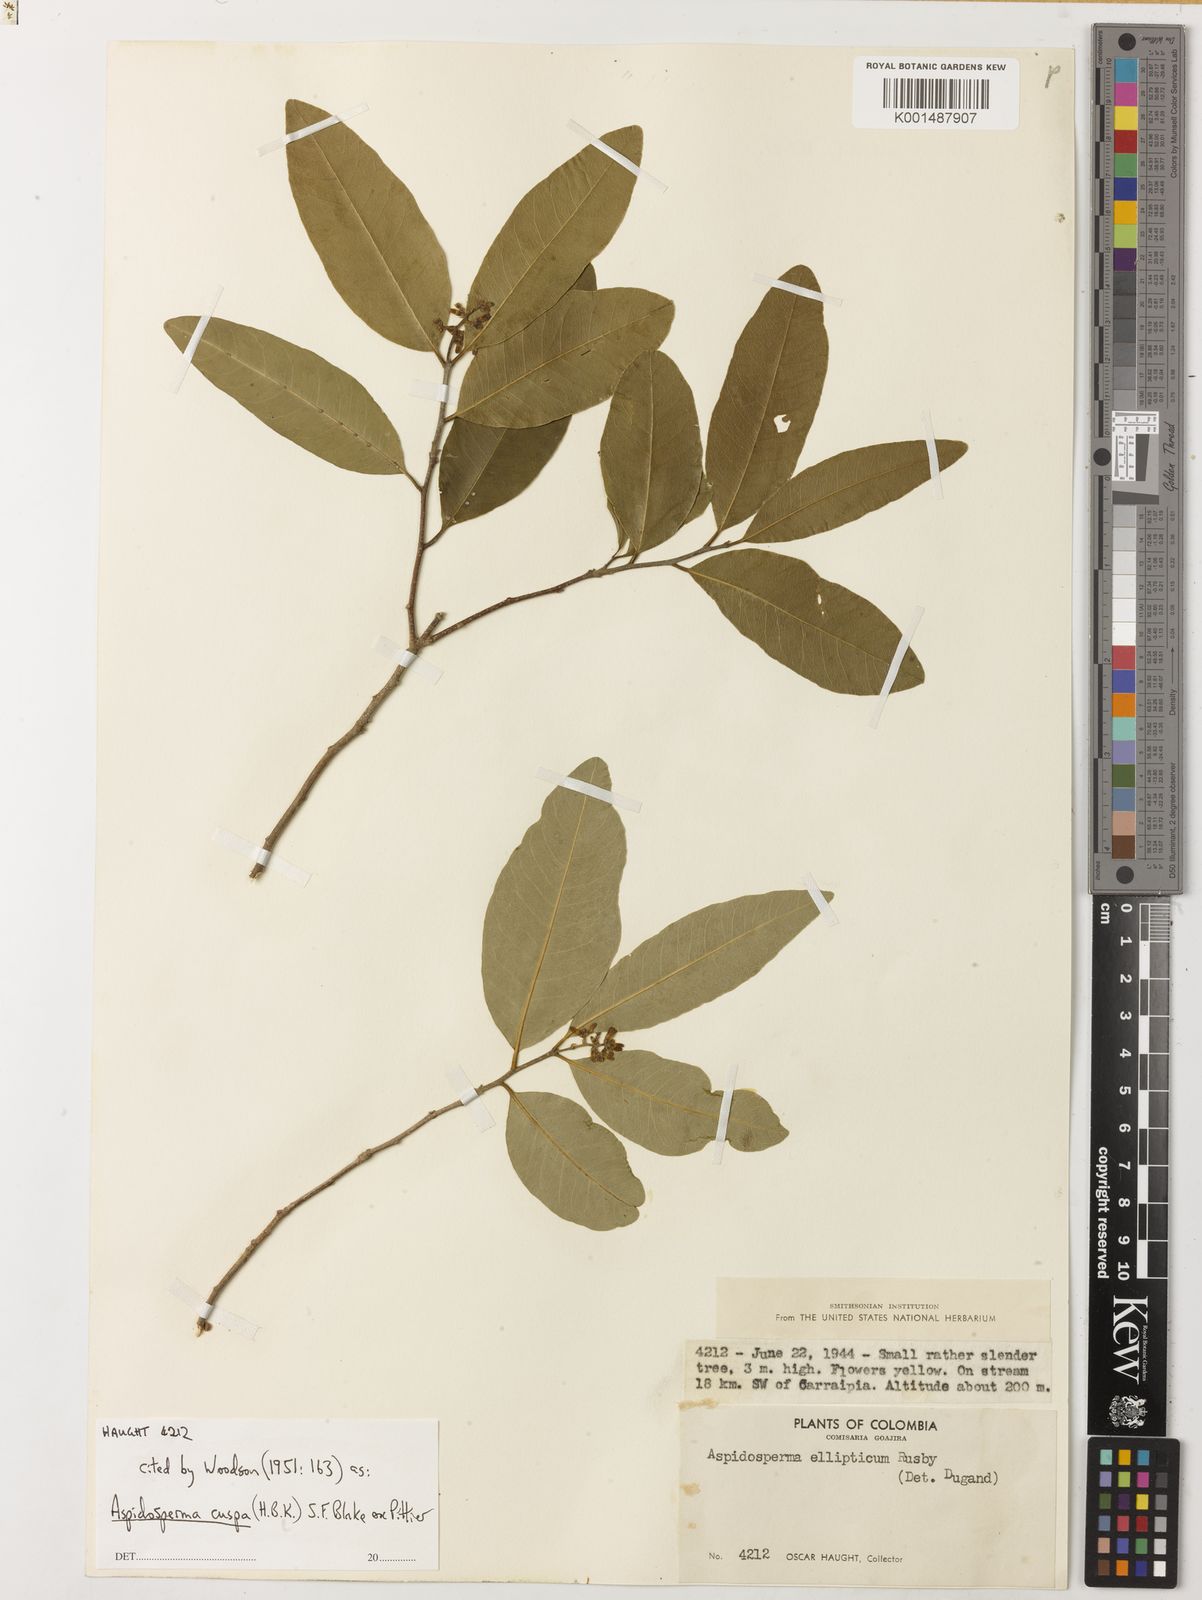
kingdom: Plantae
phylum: Tracheophyta
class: Magnoliopsida
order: Gentianales
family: Apocynaceae
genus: Aspidosperma
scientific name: Aspidosperma cuspa
